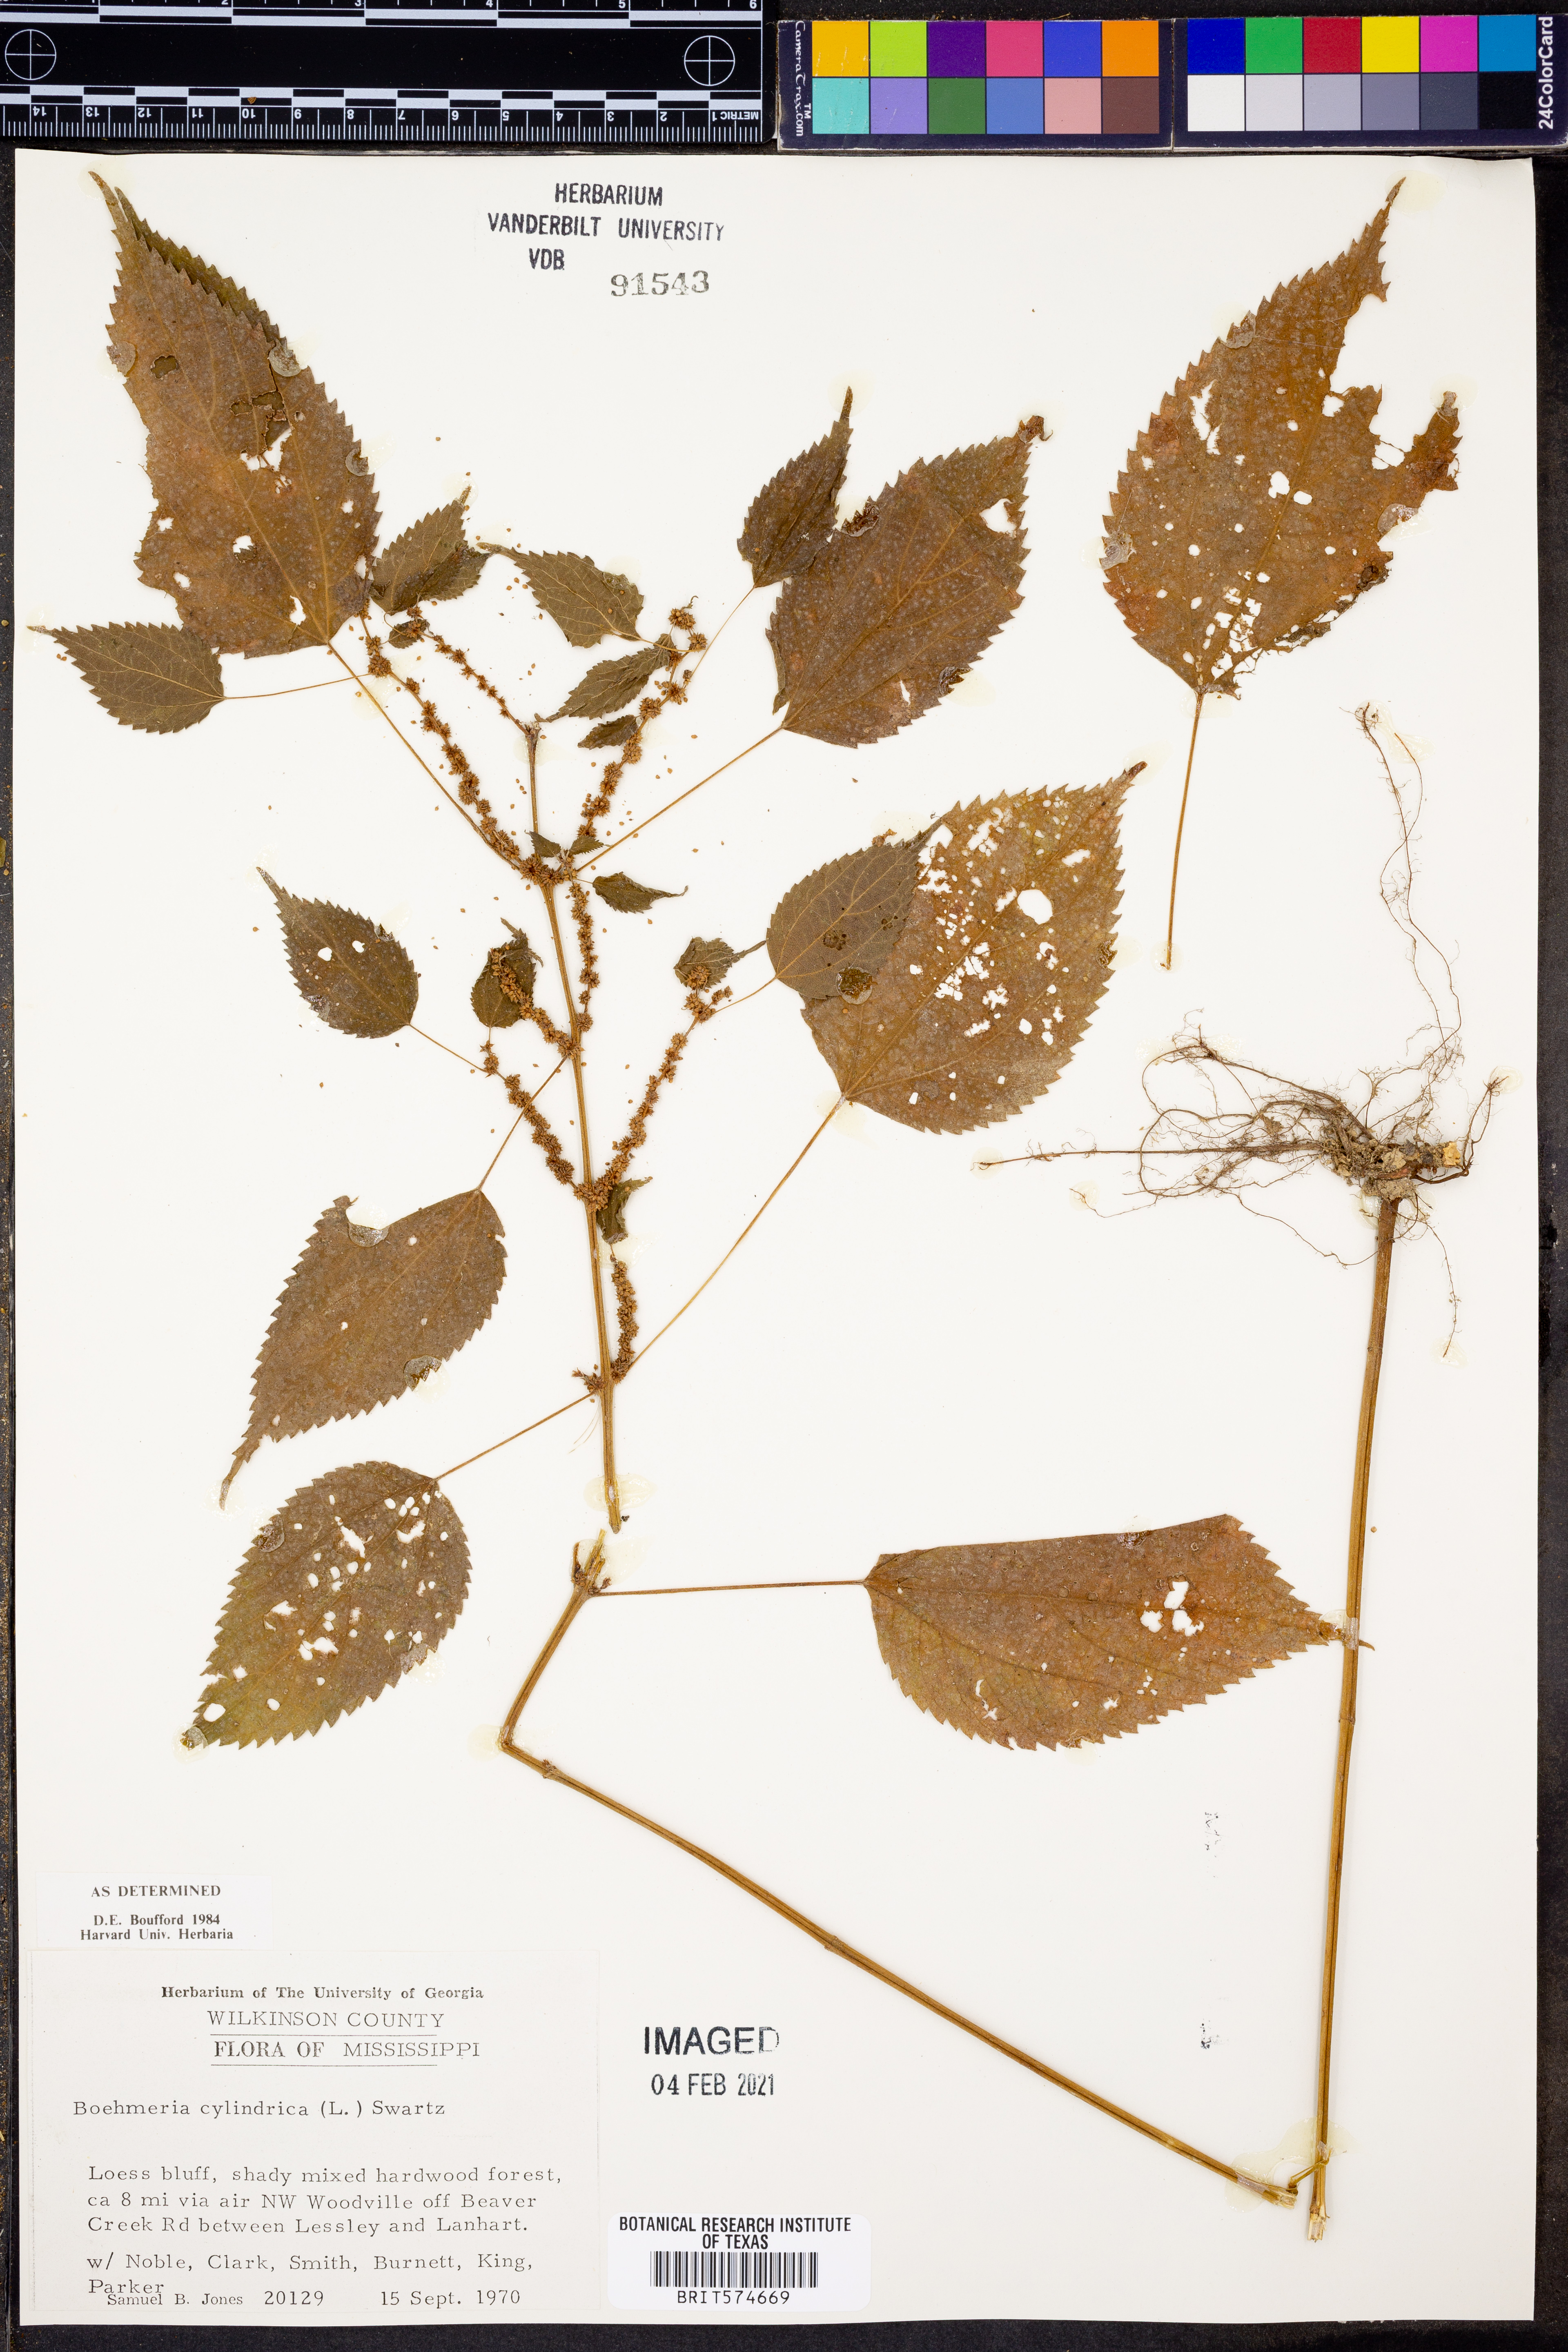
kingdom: Plantae
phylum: Tracheophyta
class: Magnoliopsida
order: Rosales
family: Urticaceae
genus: Boehmeria
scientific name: Boehmeria cylindrica
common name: Bog-hemp
